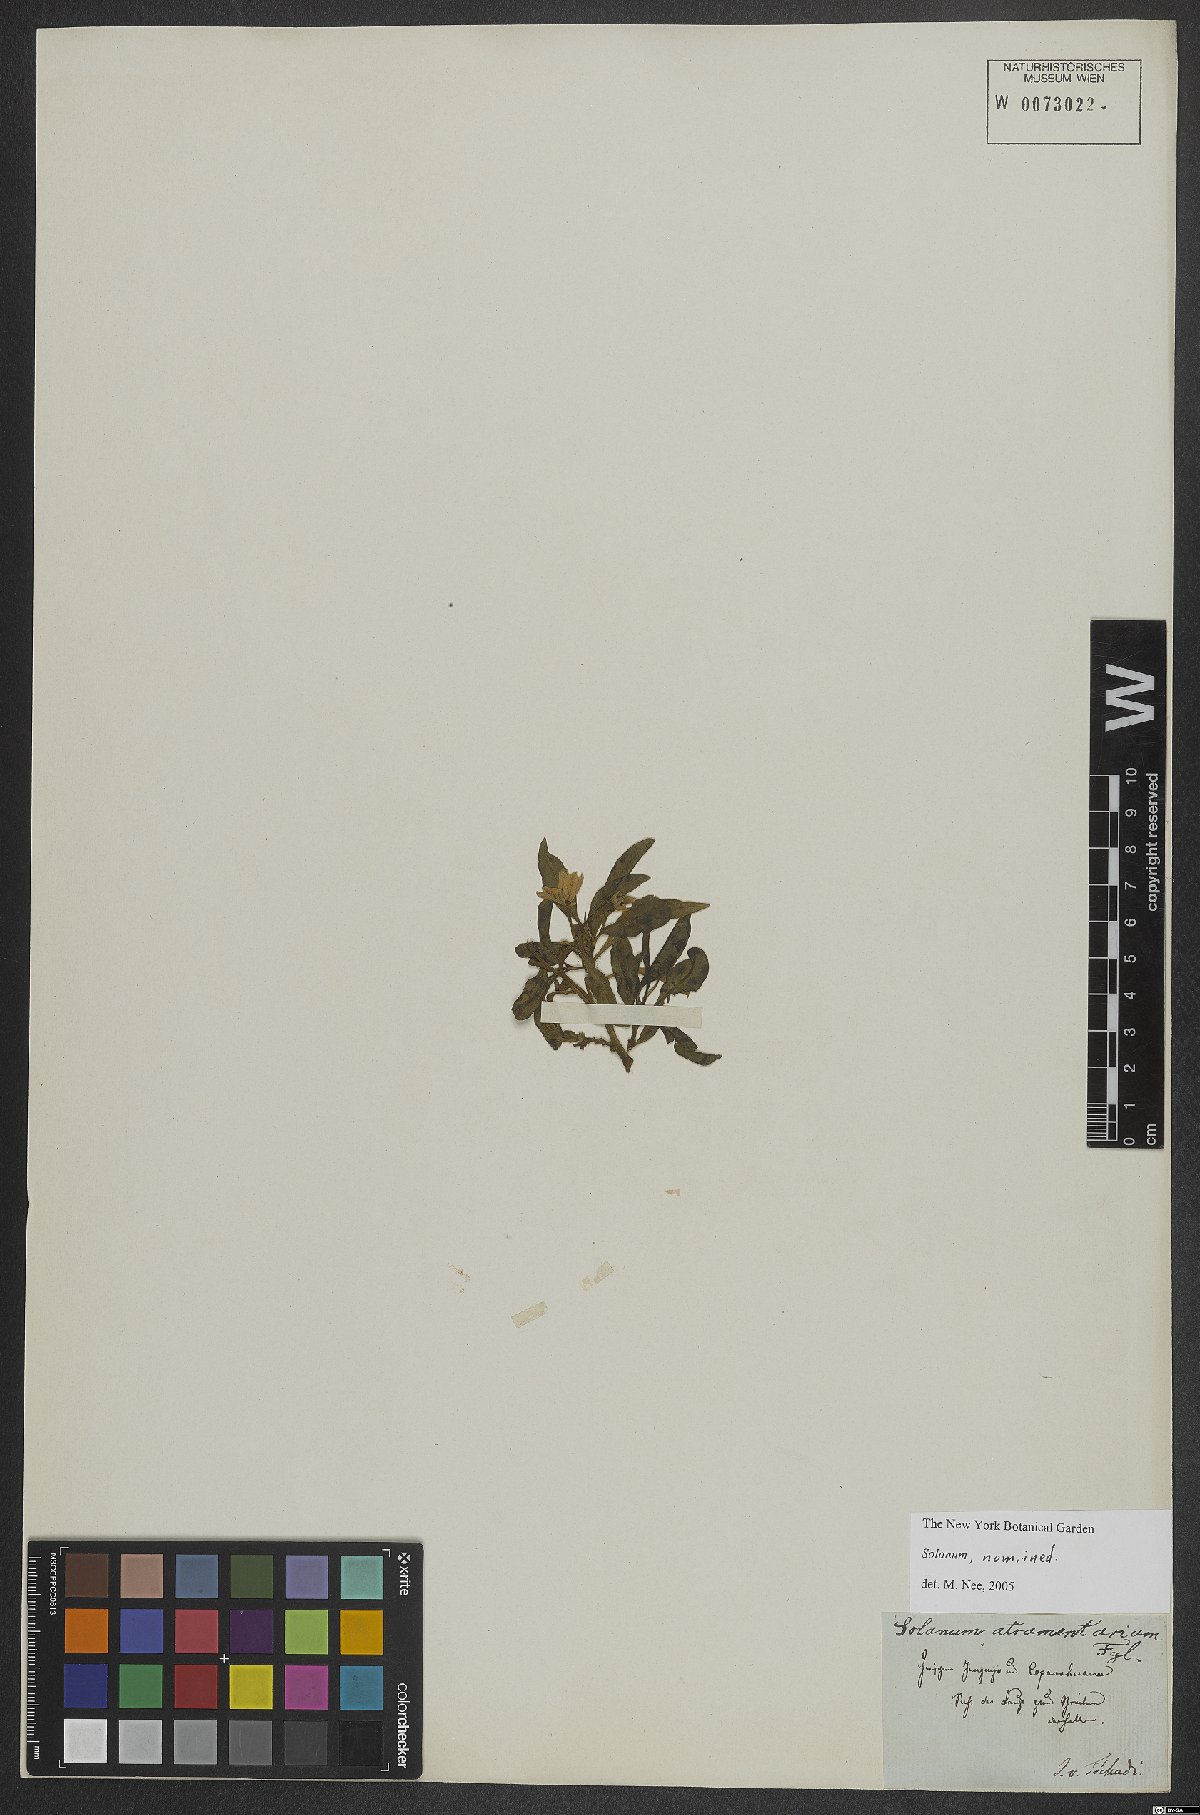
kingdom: Plantae
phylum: Tracheophyta
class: Magnoliopsida
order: Solanales
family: Solanaceae
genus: Solanum
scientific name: Solanum nitidum
